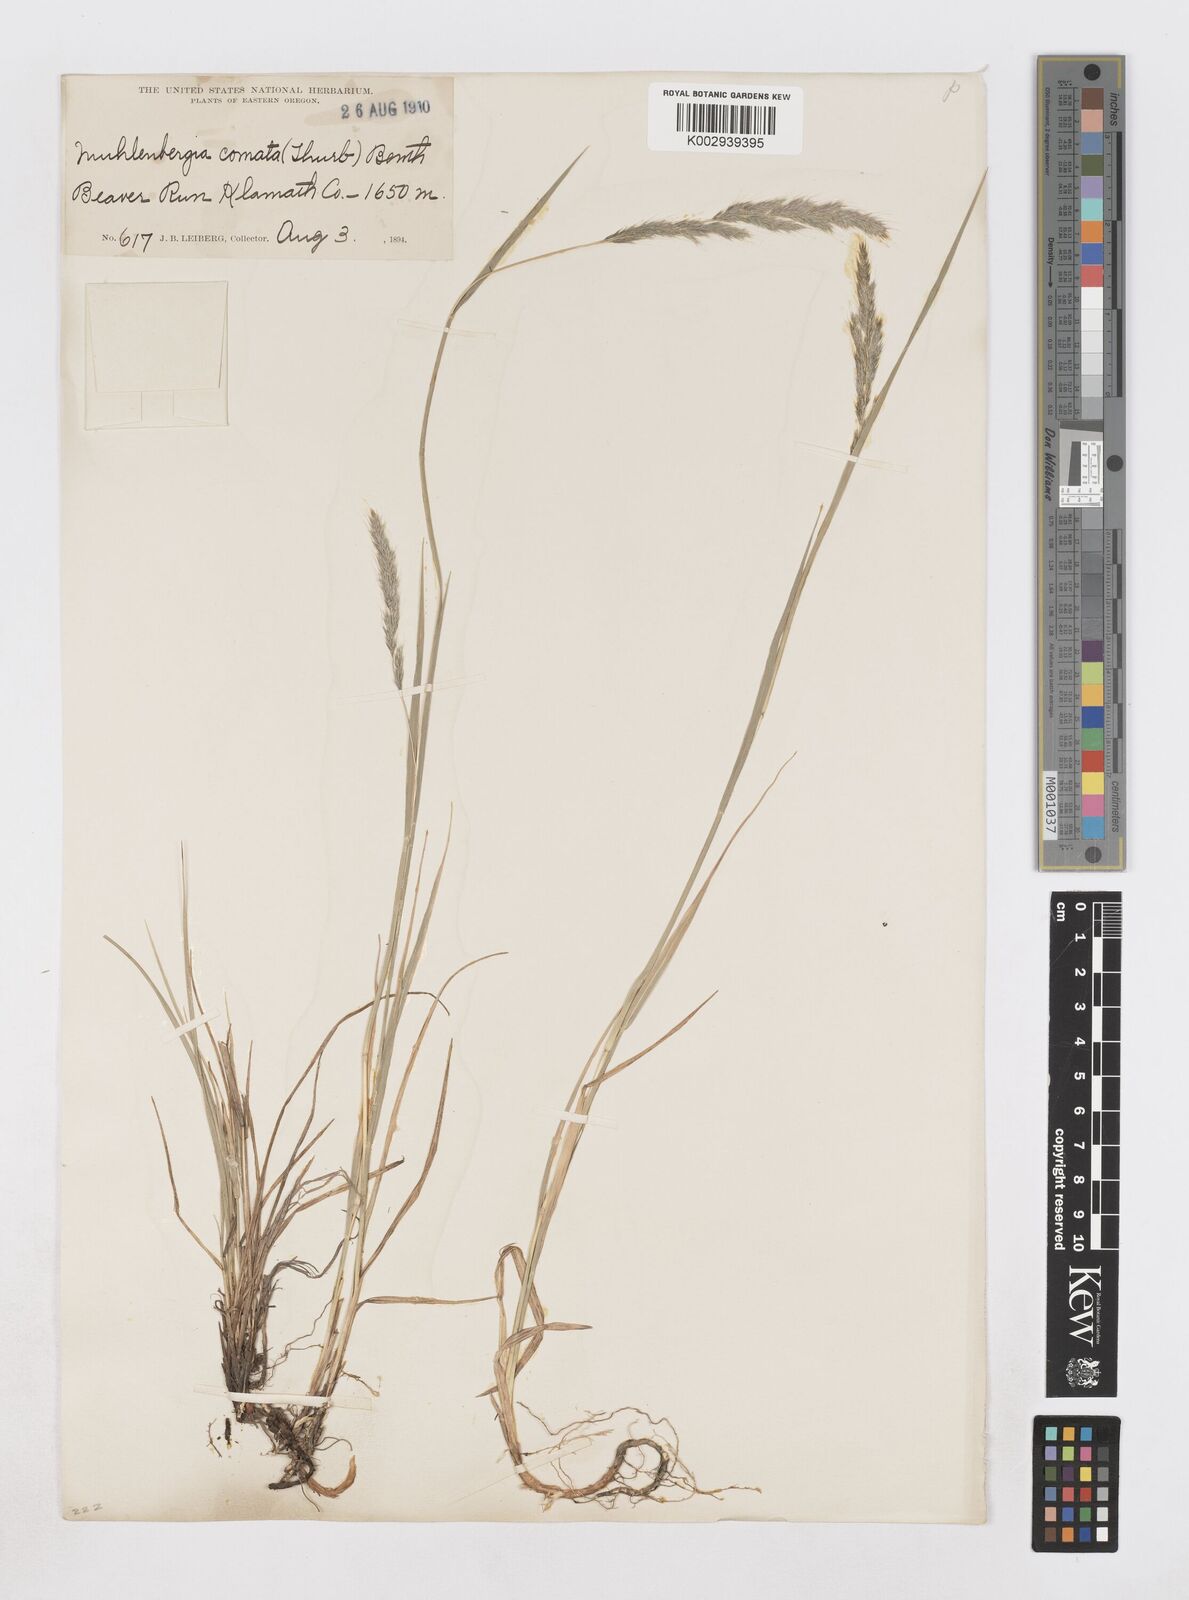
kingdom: Plantae
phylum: Tracheophyta
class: Liliopsida
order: Poales
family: Poaceae
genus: Muhlenbergia
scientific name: Muhlenbergia andina
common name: Foxtail muhly
